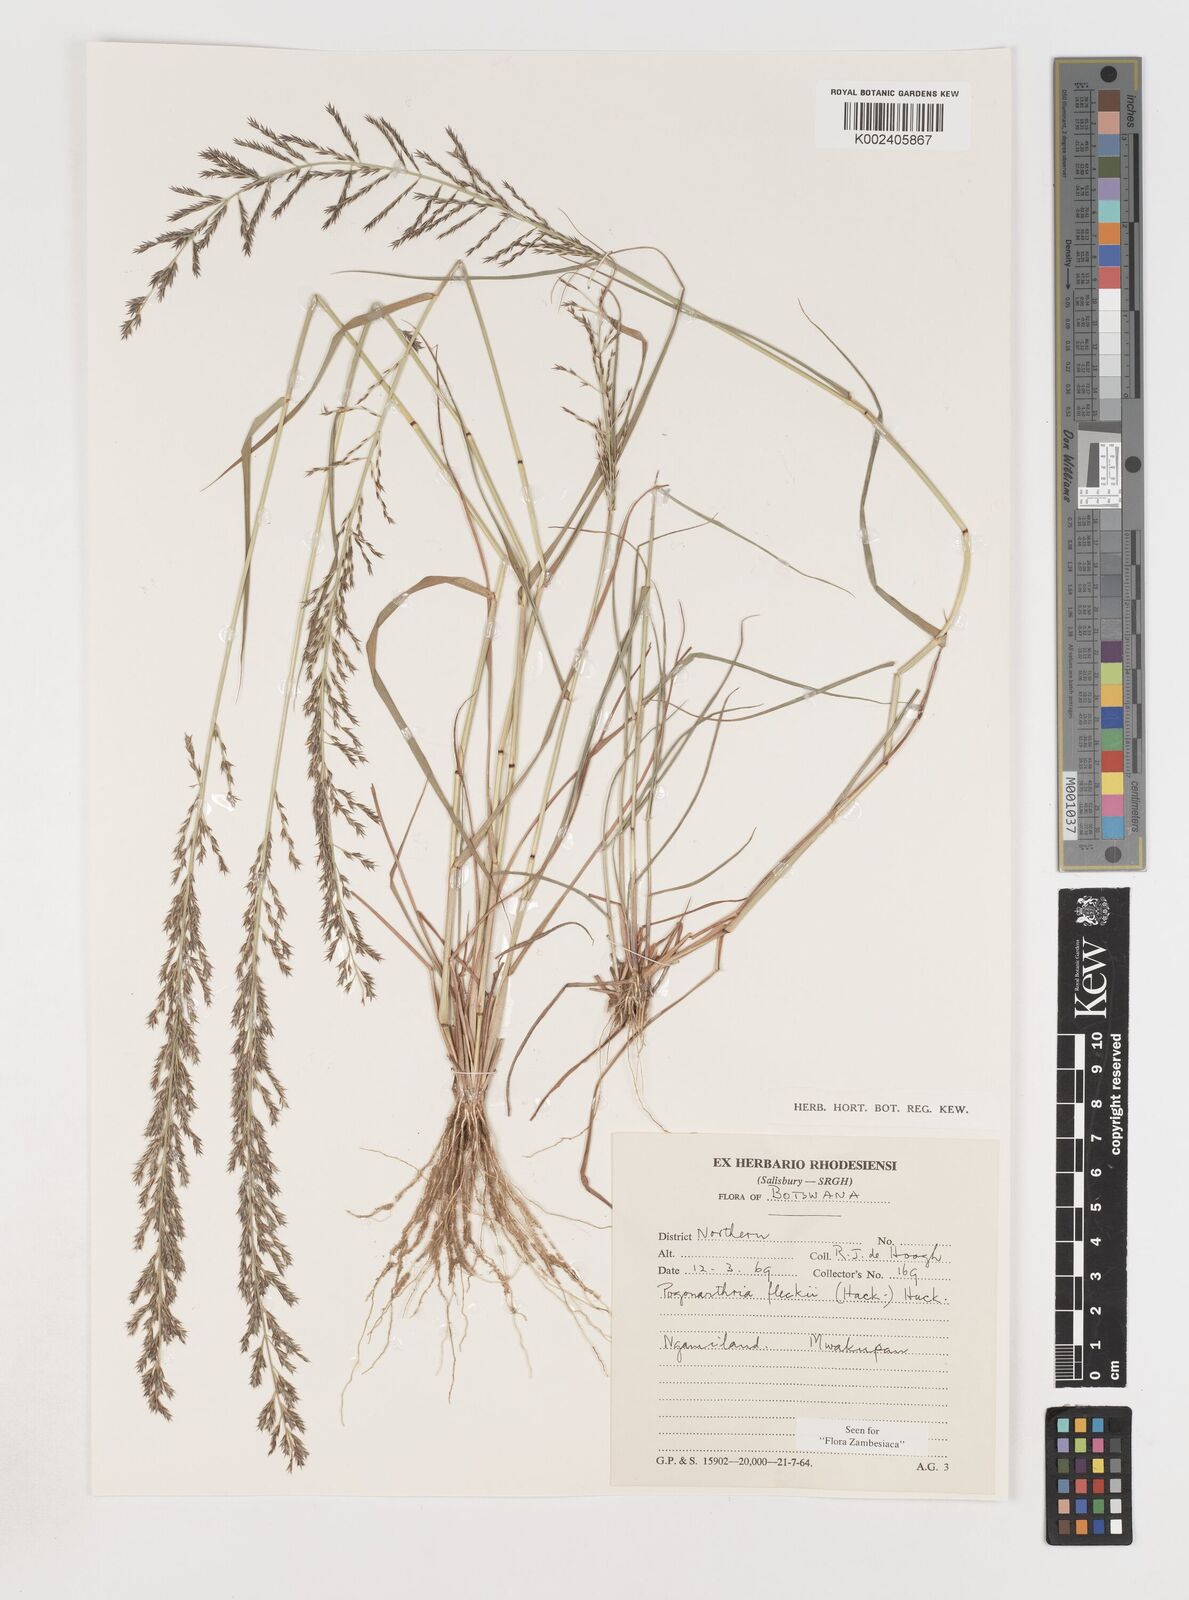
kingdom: Plantae
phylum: Tracheophyta
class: Liliopsida
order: Poales
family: Poaceae
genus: Pogonarthria
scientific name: Pogonarthria fleckii
